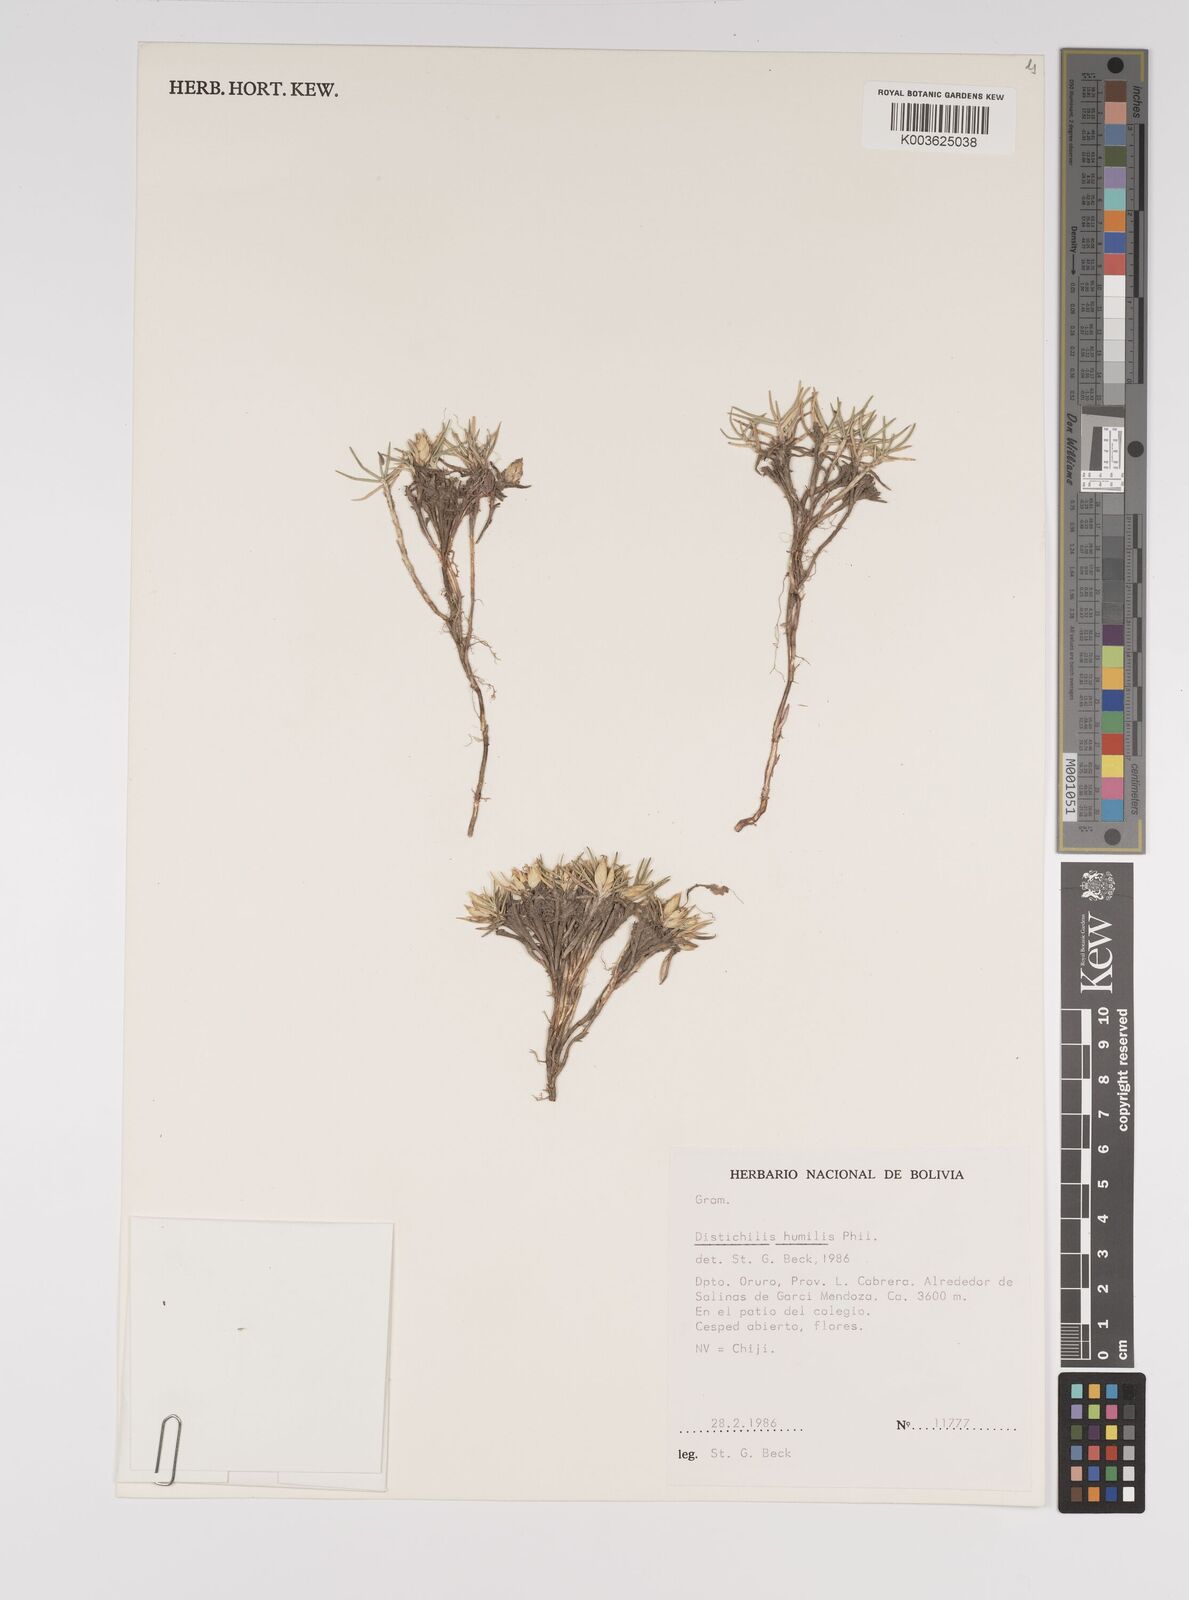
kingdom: Plantae
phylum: Tracheophyta
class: Liliopsida
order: Poales
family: Poaceae
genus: Distichlis
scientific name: Distichlis humilis
